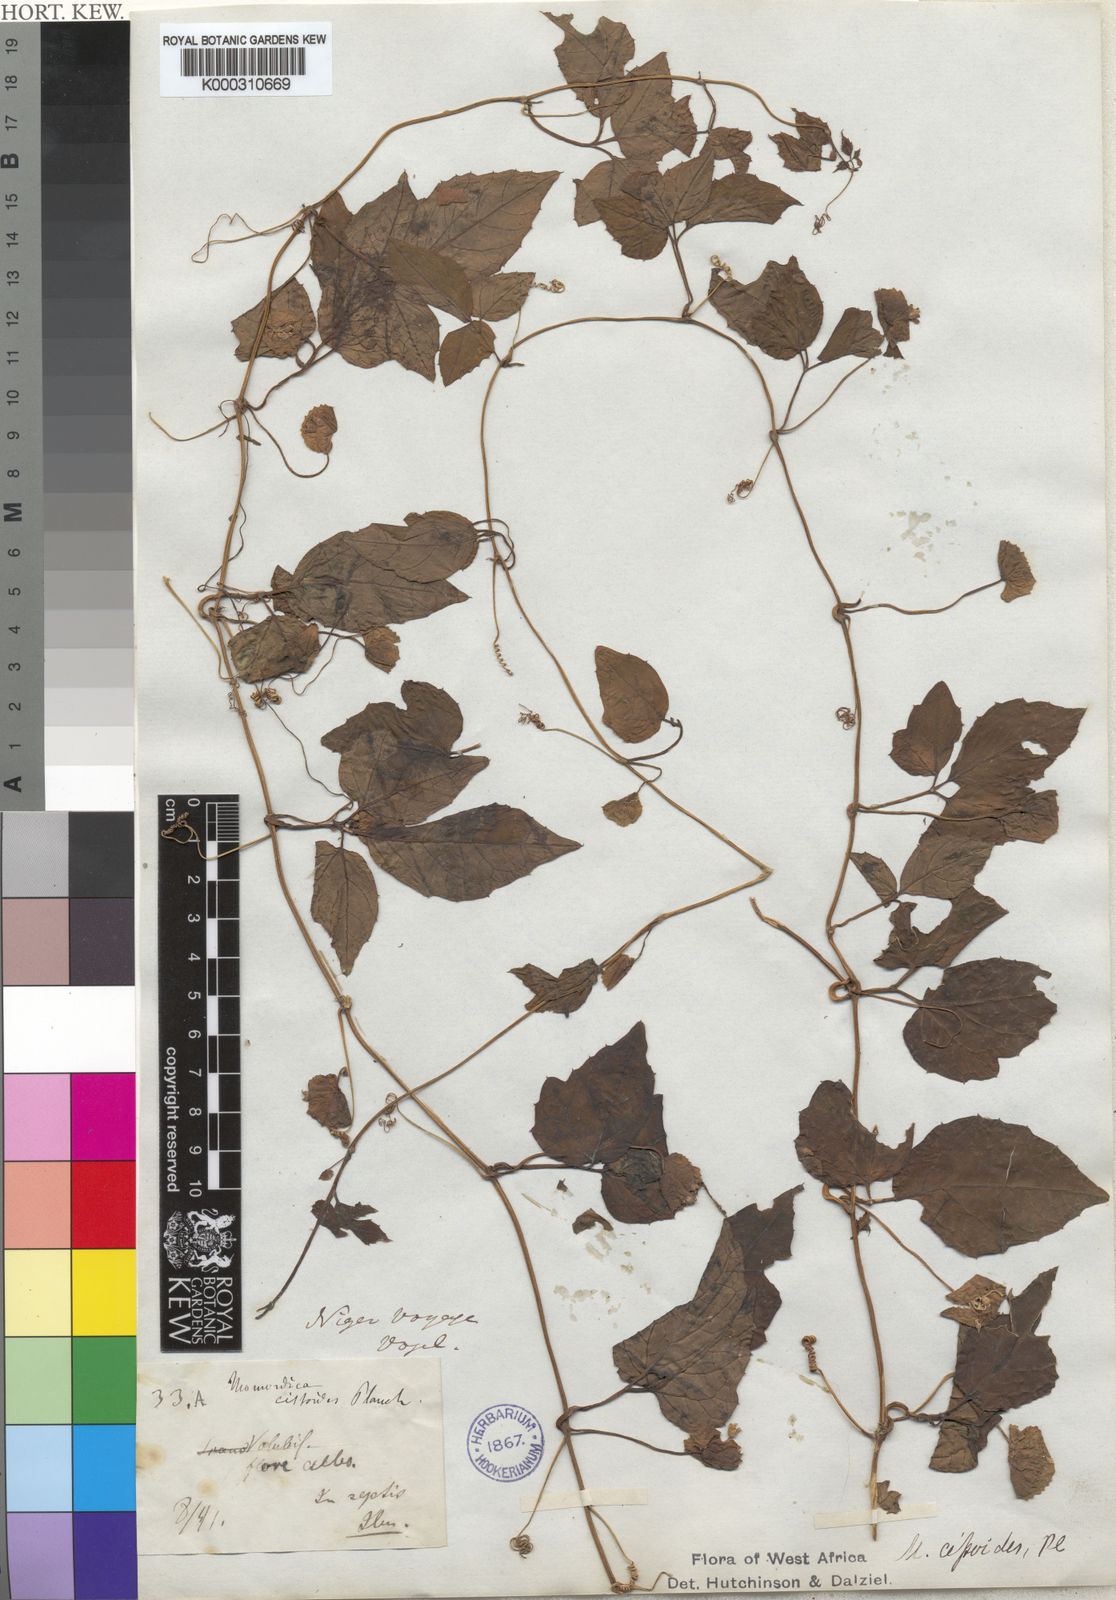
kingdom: Plantae
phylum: Tracheophyta
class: Magnoliopsida
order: Cucurbitales
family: Cucurbitaceae
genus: Momordica
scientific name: Momordica
